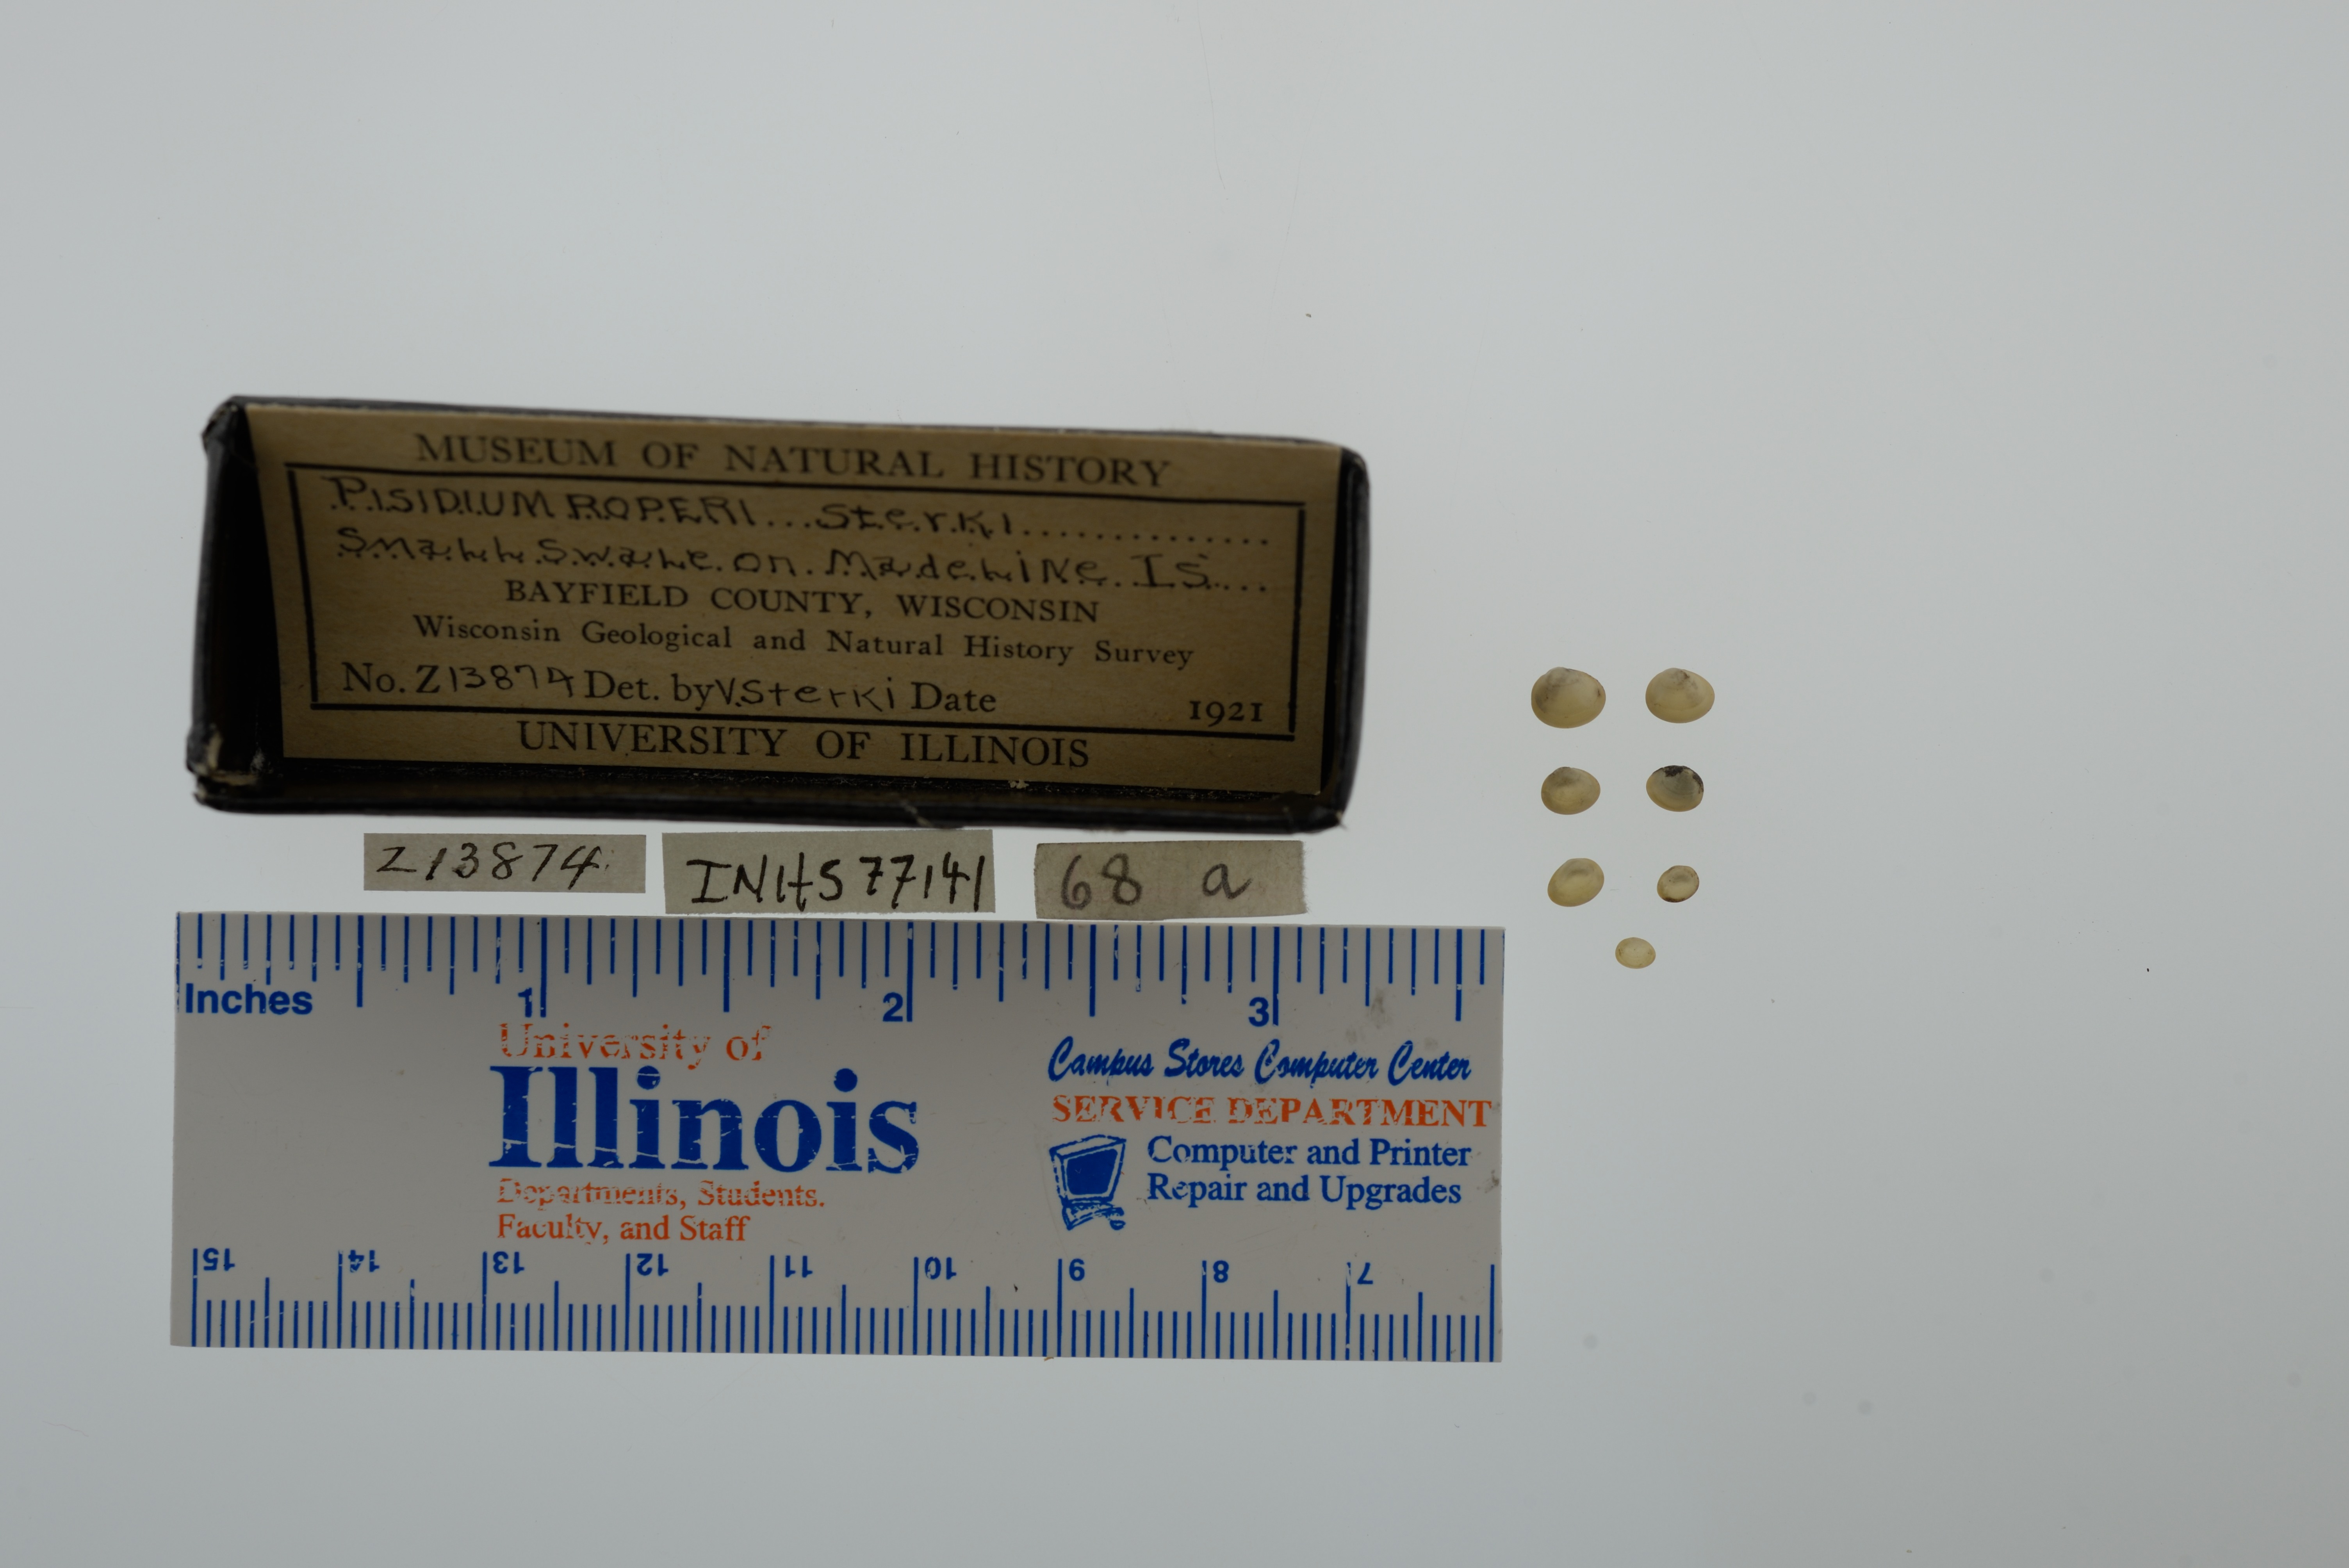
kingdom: Animalia
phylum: Mollusca
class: Bivalvia
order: Sphaeriida
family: Sphaeriidae
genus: Euglesa
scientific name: Euglesa casertana
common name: Caserta pea mussel
